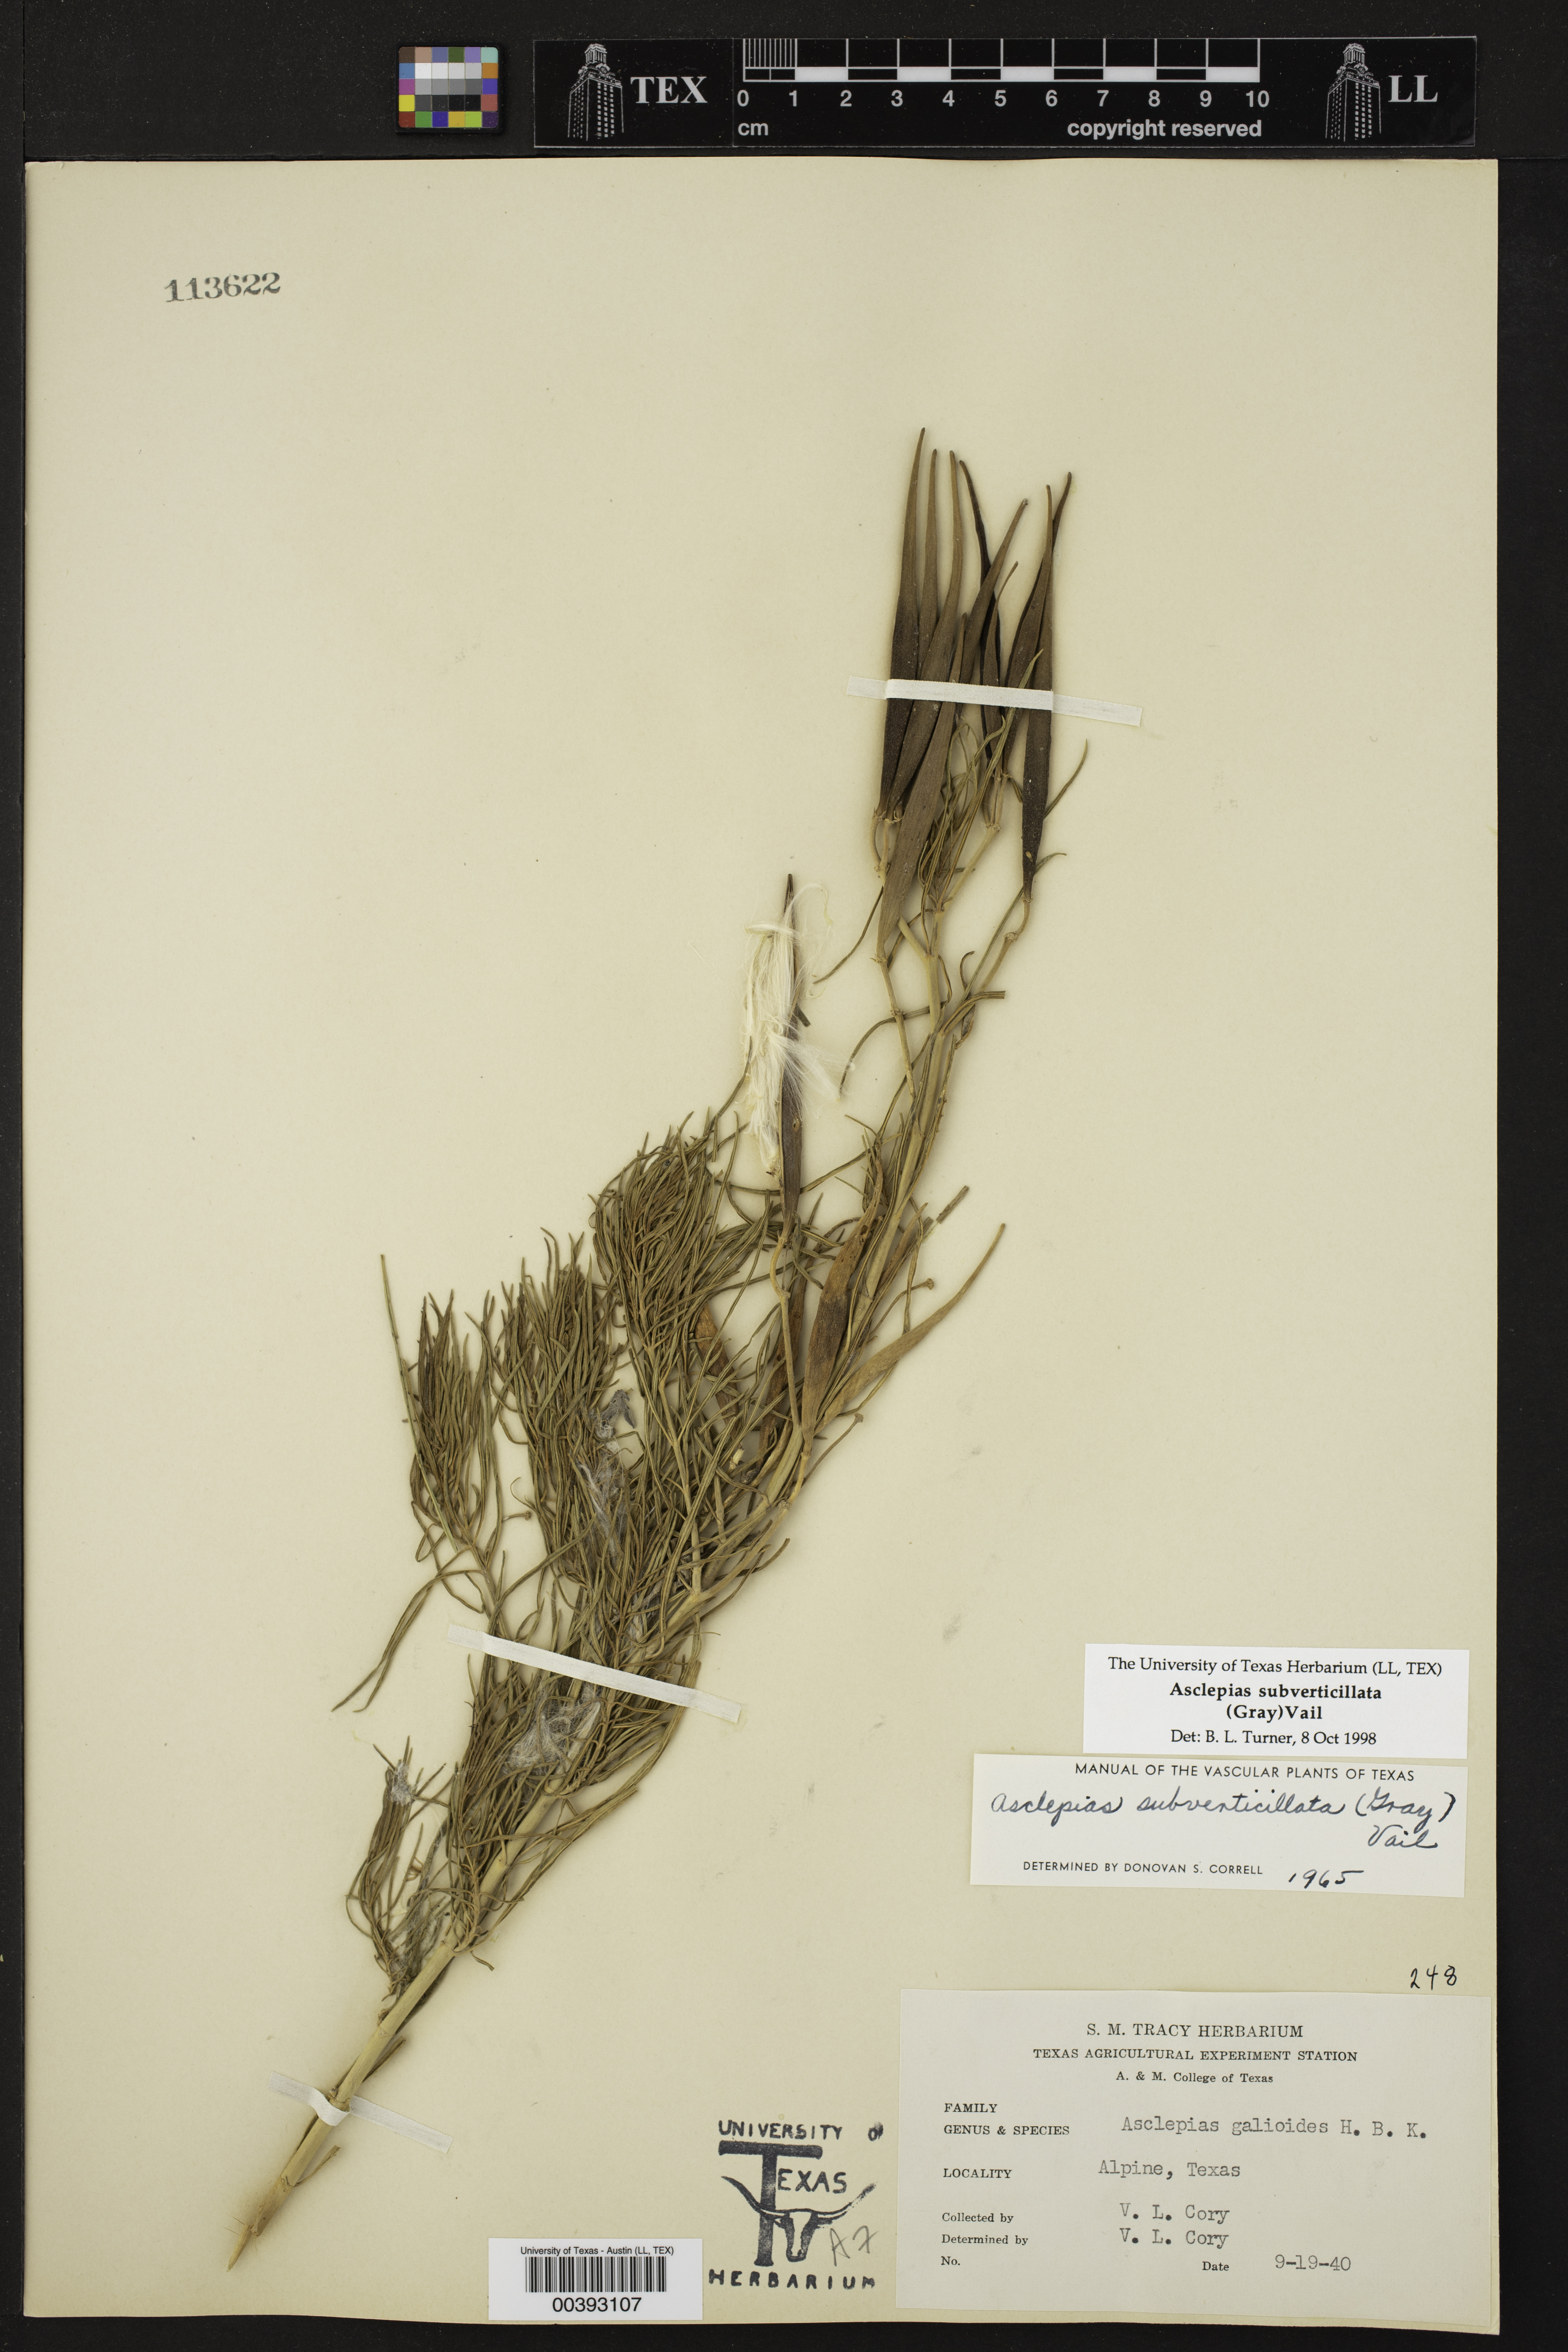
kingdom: Plantae
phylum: Tracheophyta
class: Magnoliopsida
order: Gentianales
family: Apocynaceae
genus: Asclepias
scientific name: Asclepias subverticillata
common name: Horsetail milkweed
